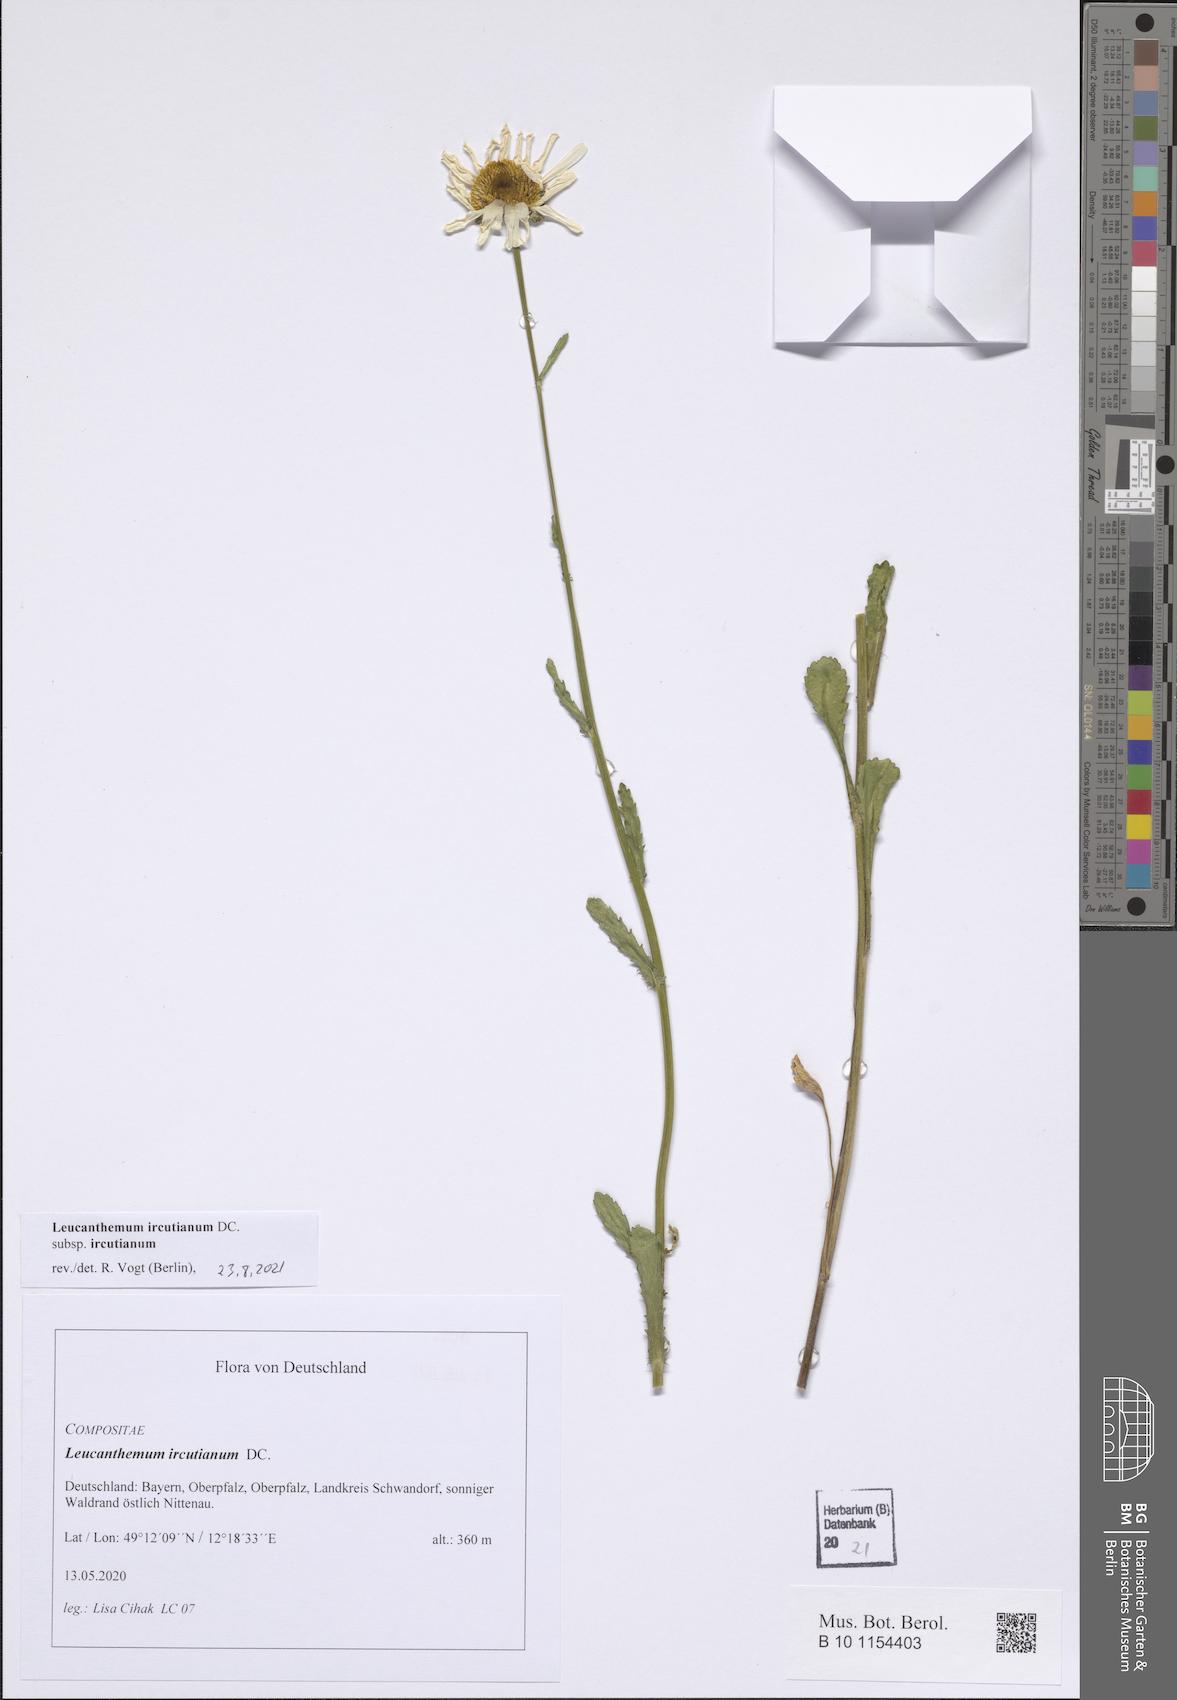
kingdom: Plantae
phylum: Tracheophyta
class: Magnoliopsida
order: Asterales
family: Asteraceae
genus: Leucanthemum
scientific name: Leucanthemum ircutianum
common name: Daisy
